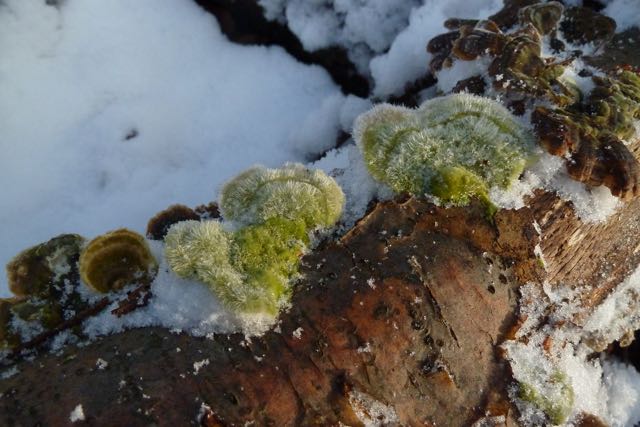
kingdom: Fungi
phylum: Basidiomycota
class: Agaricomycetes
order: Polyporales
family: Polyporaceae
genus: Trametes
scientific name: Trametes hirsuta
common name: håret læderporesvamp
